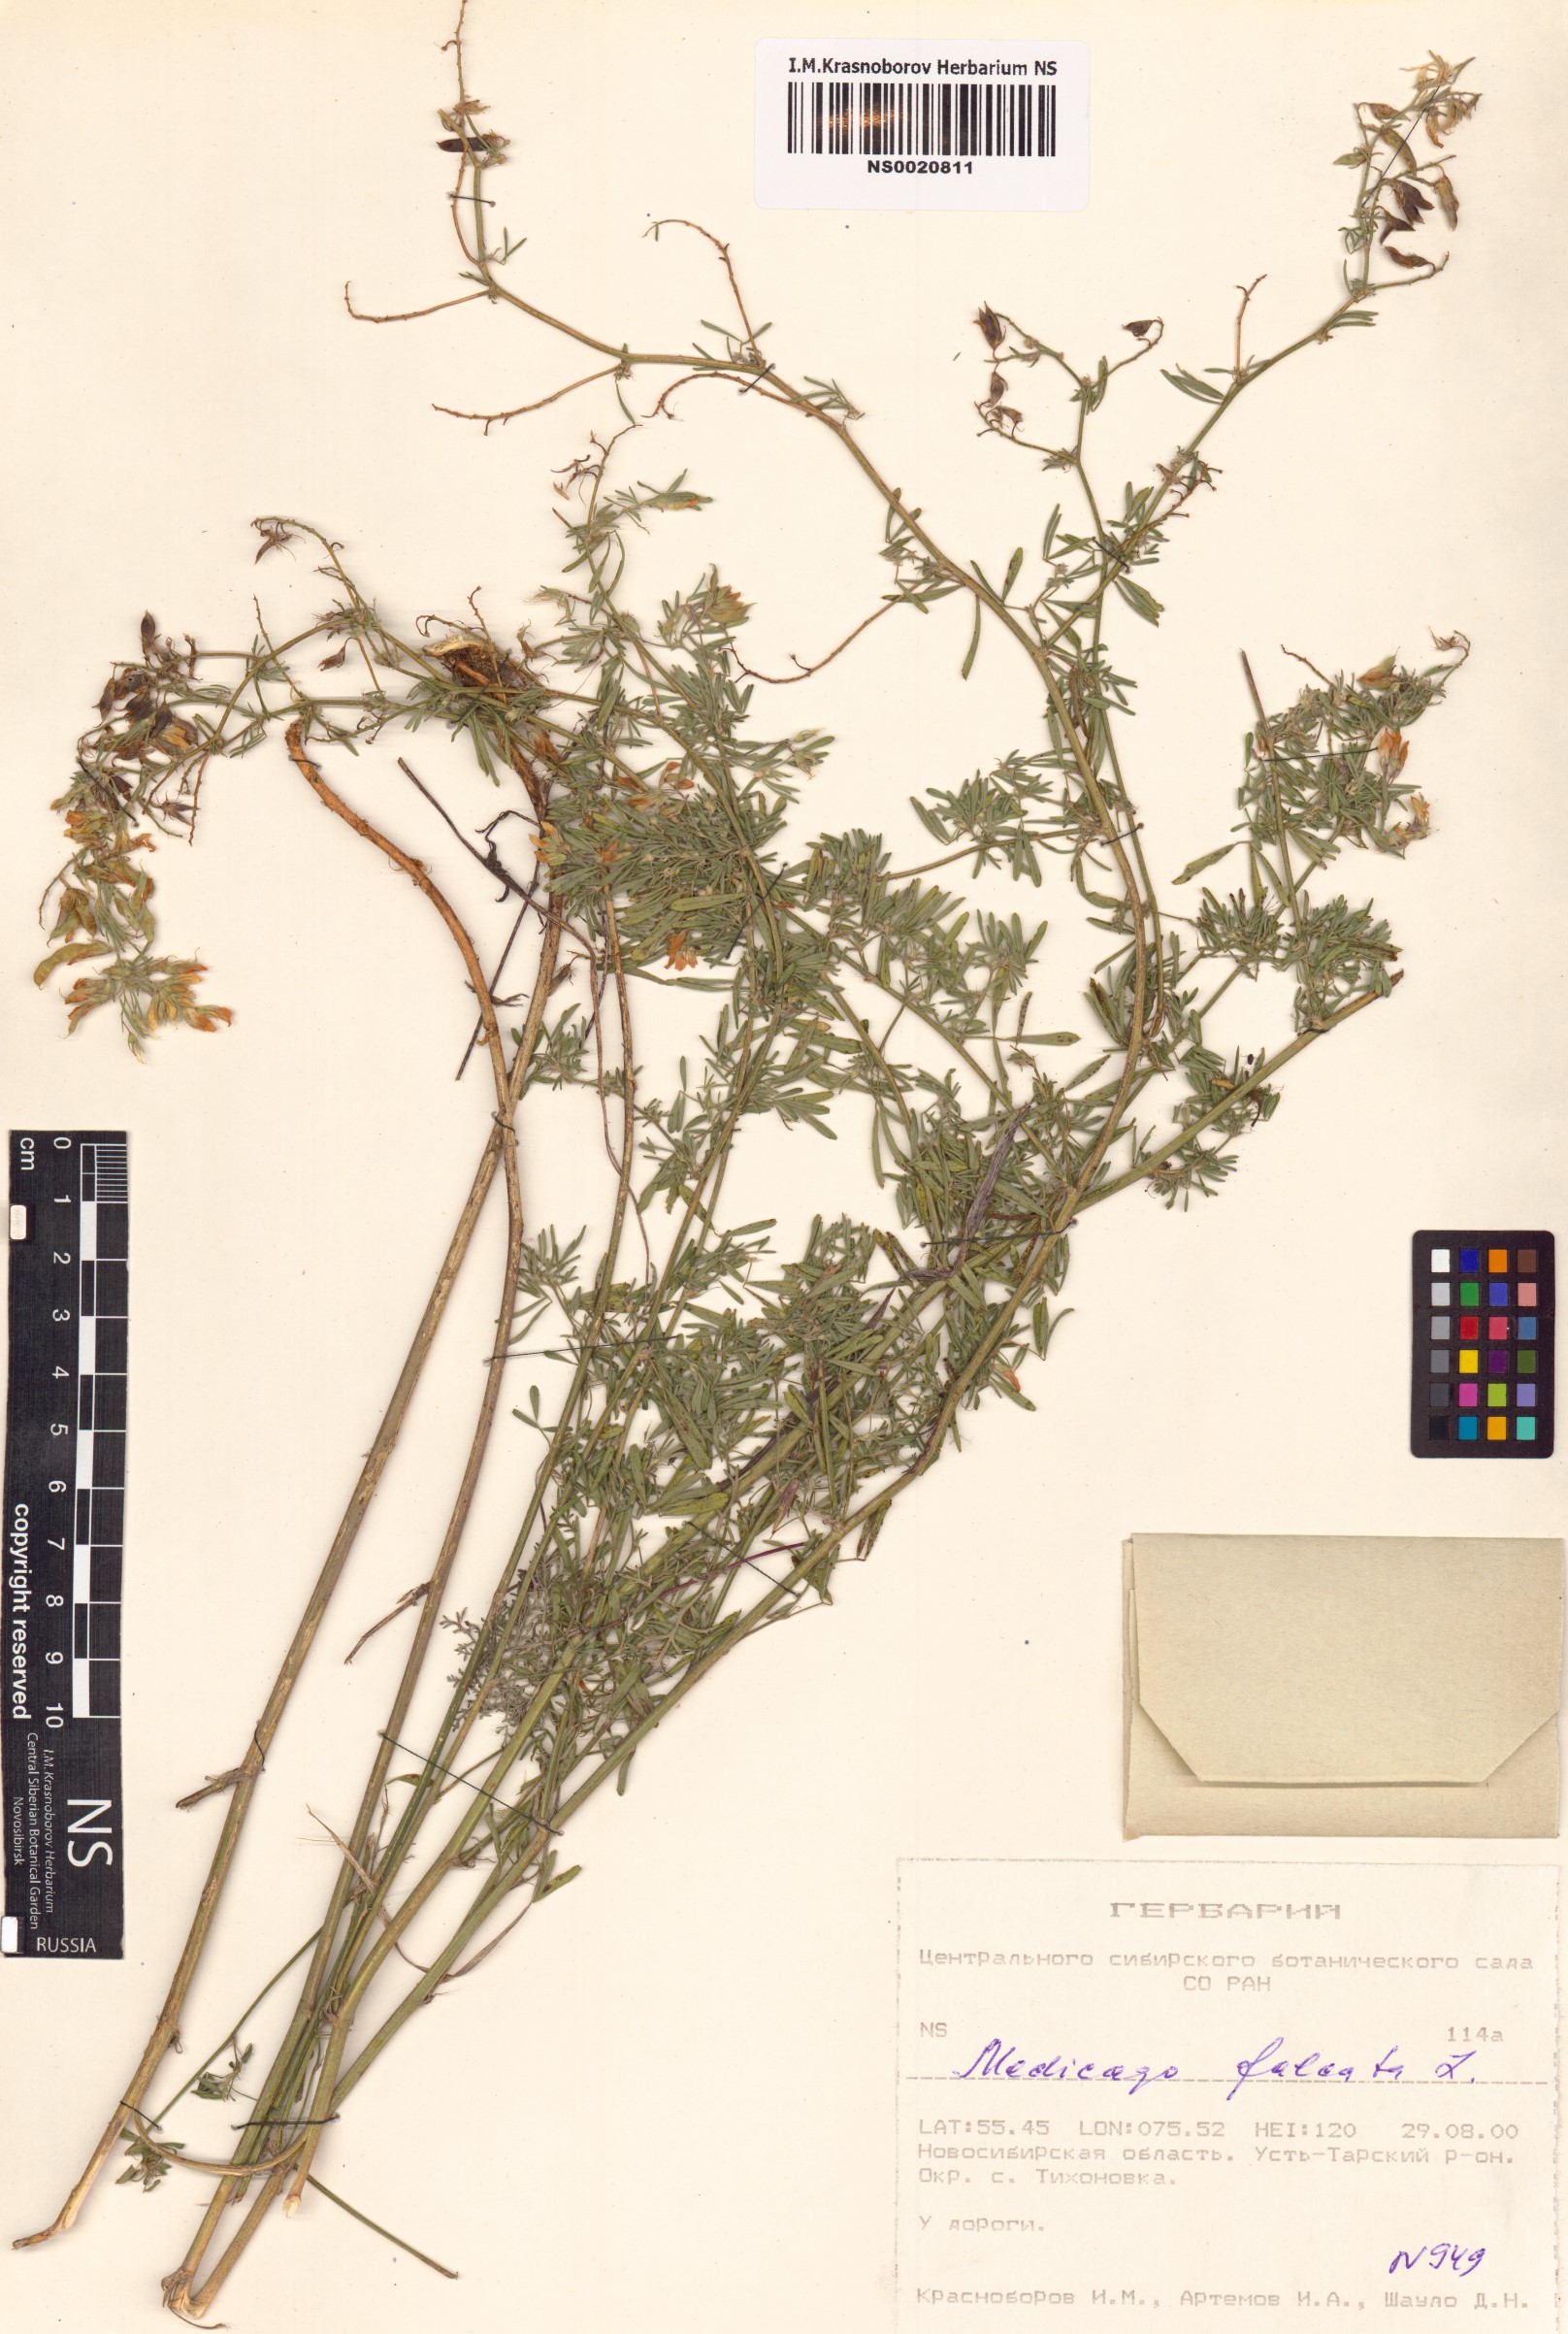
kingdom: Plantae
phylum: Tracheophyta
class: Magnoliopsida
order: Fabales
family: Fabaceae
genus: Medicago
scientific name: Medicago falcata
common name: Sickle medick
